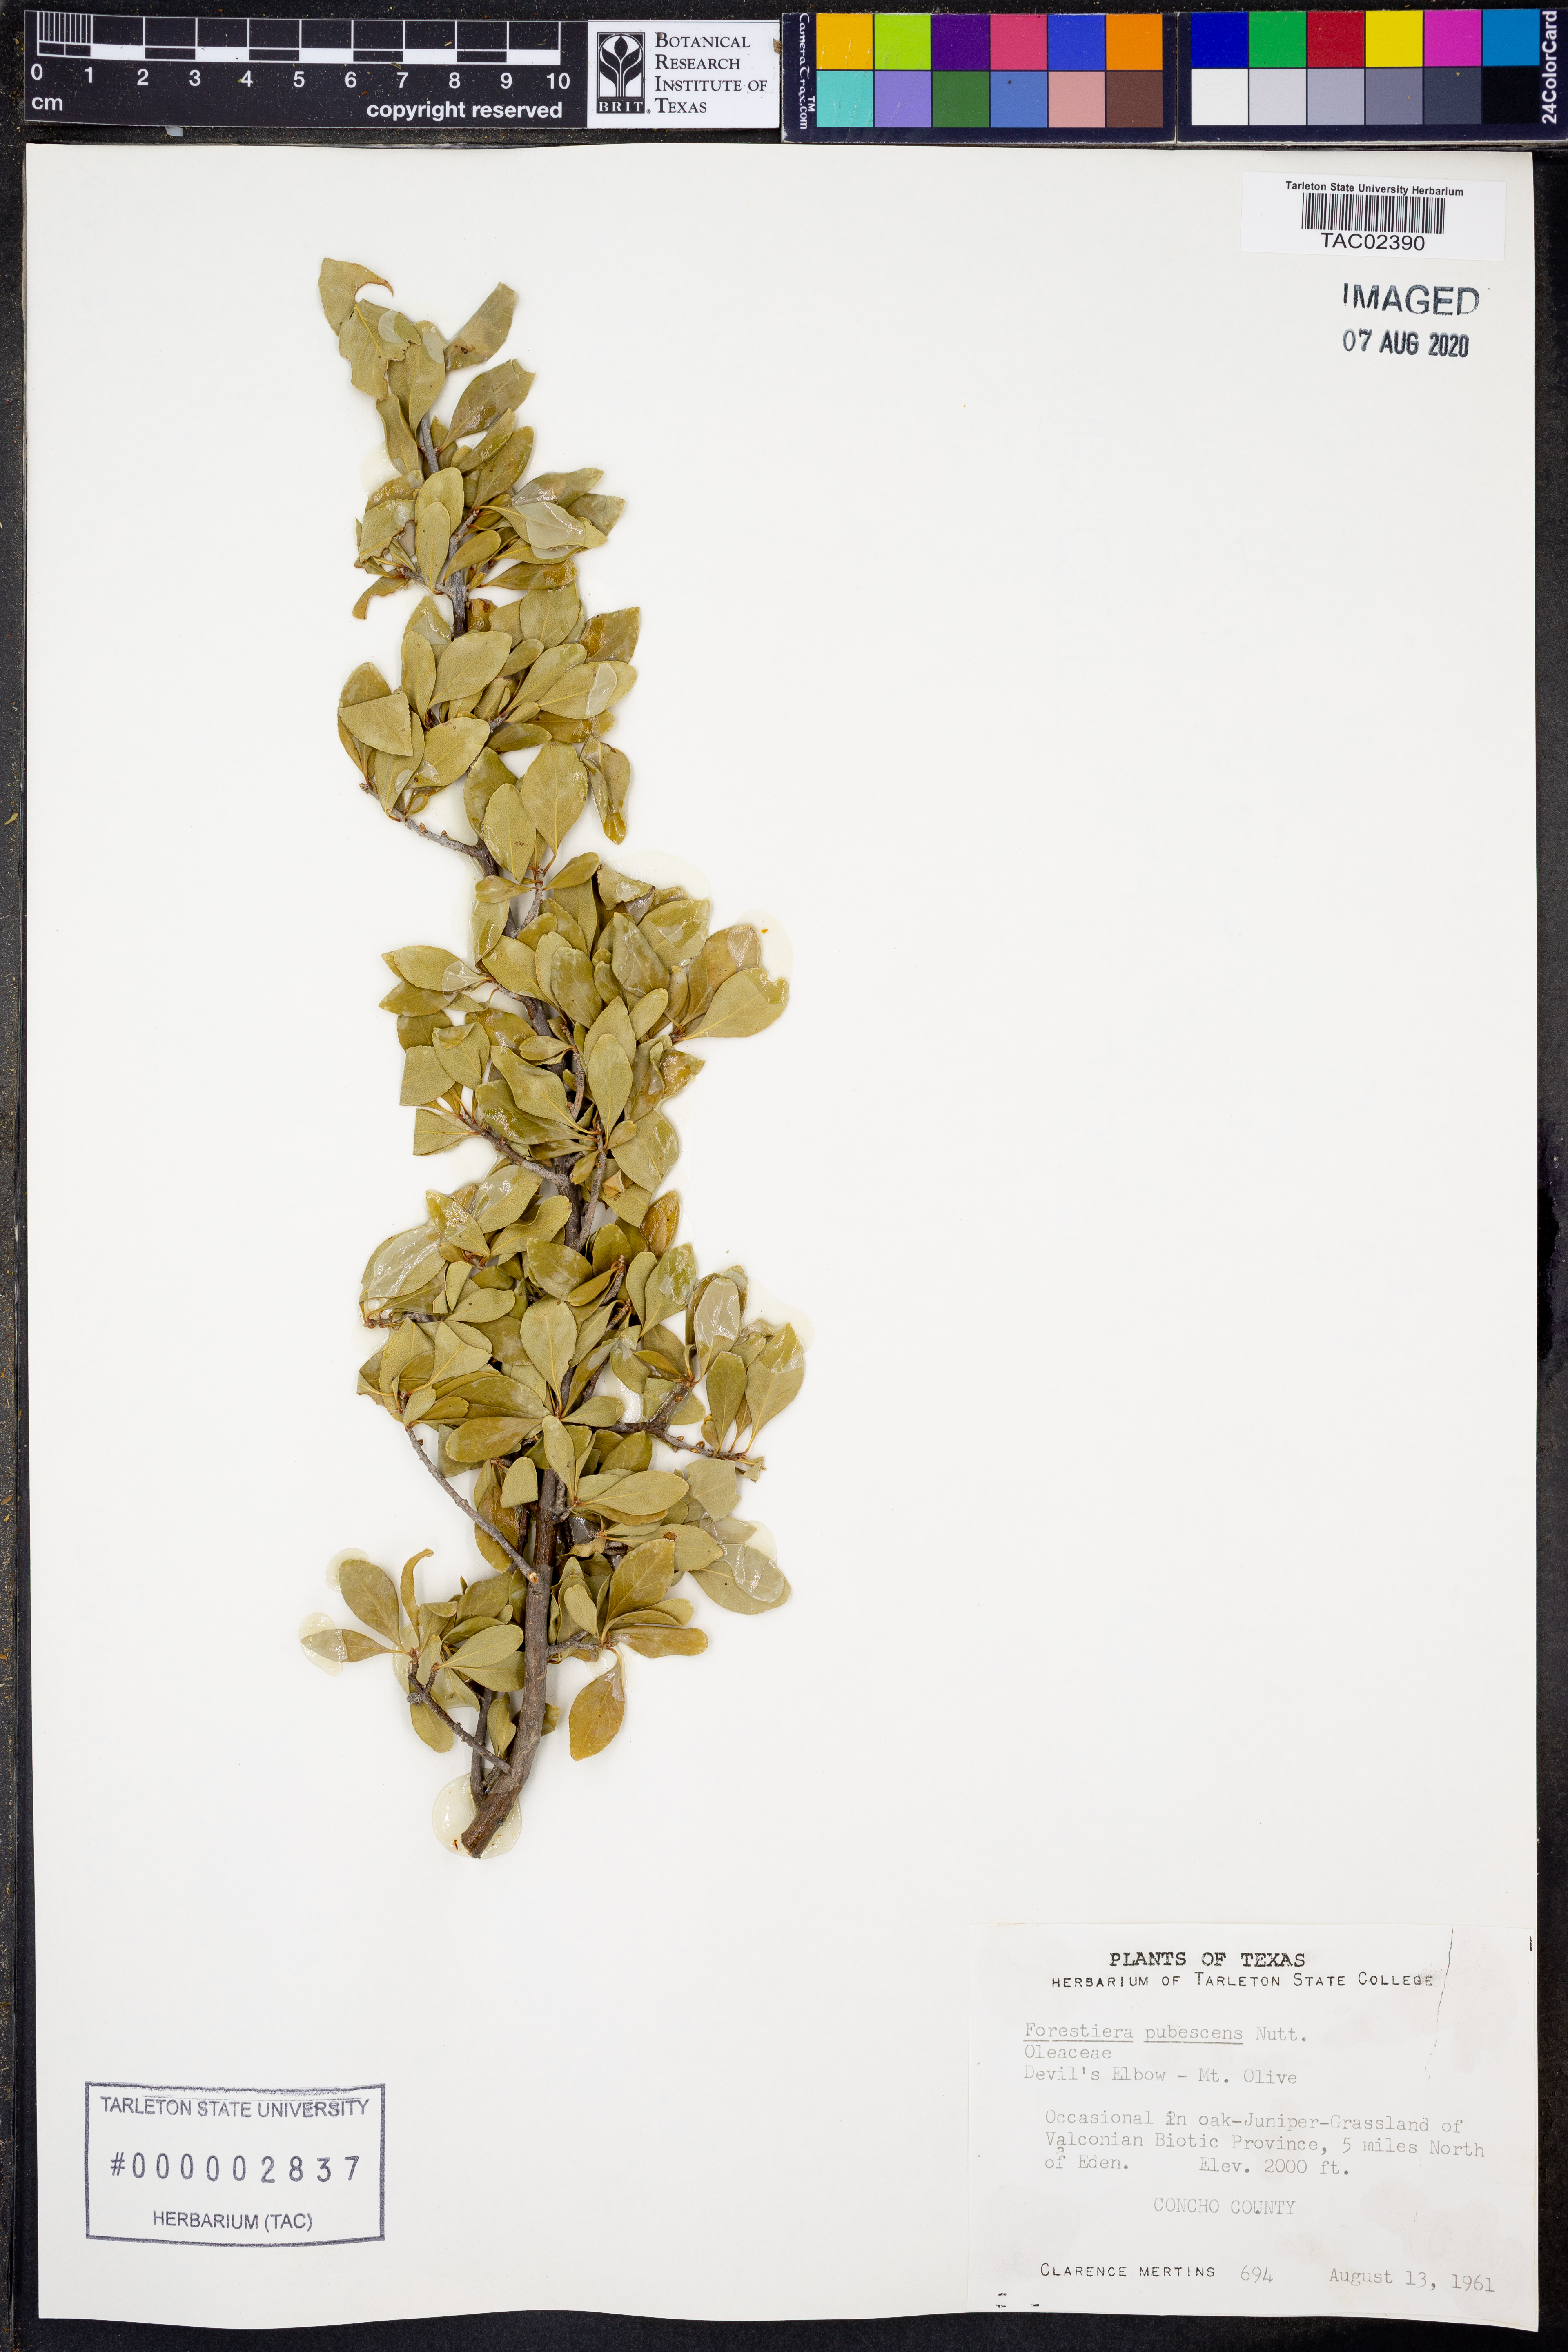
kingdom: Plantae
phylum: Tracheophyta
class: Magnoliopsida
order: Lamiales
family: Oleaceae
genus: Forestiera
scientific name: Forestiera pubescens
